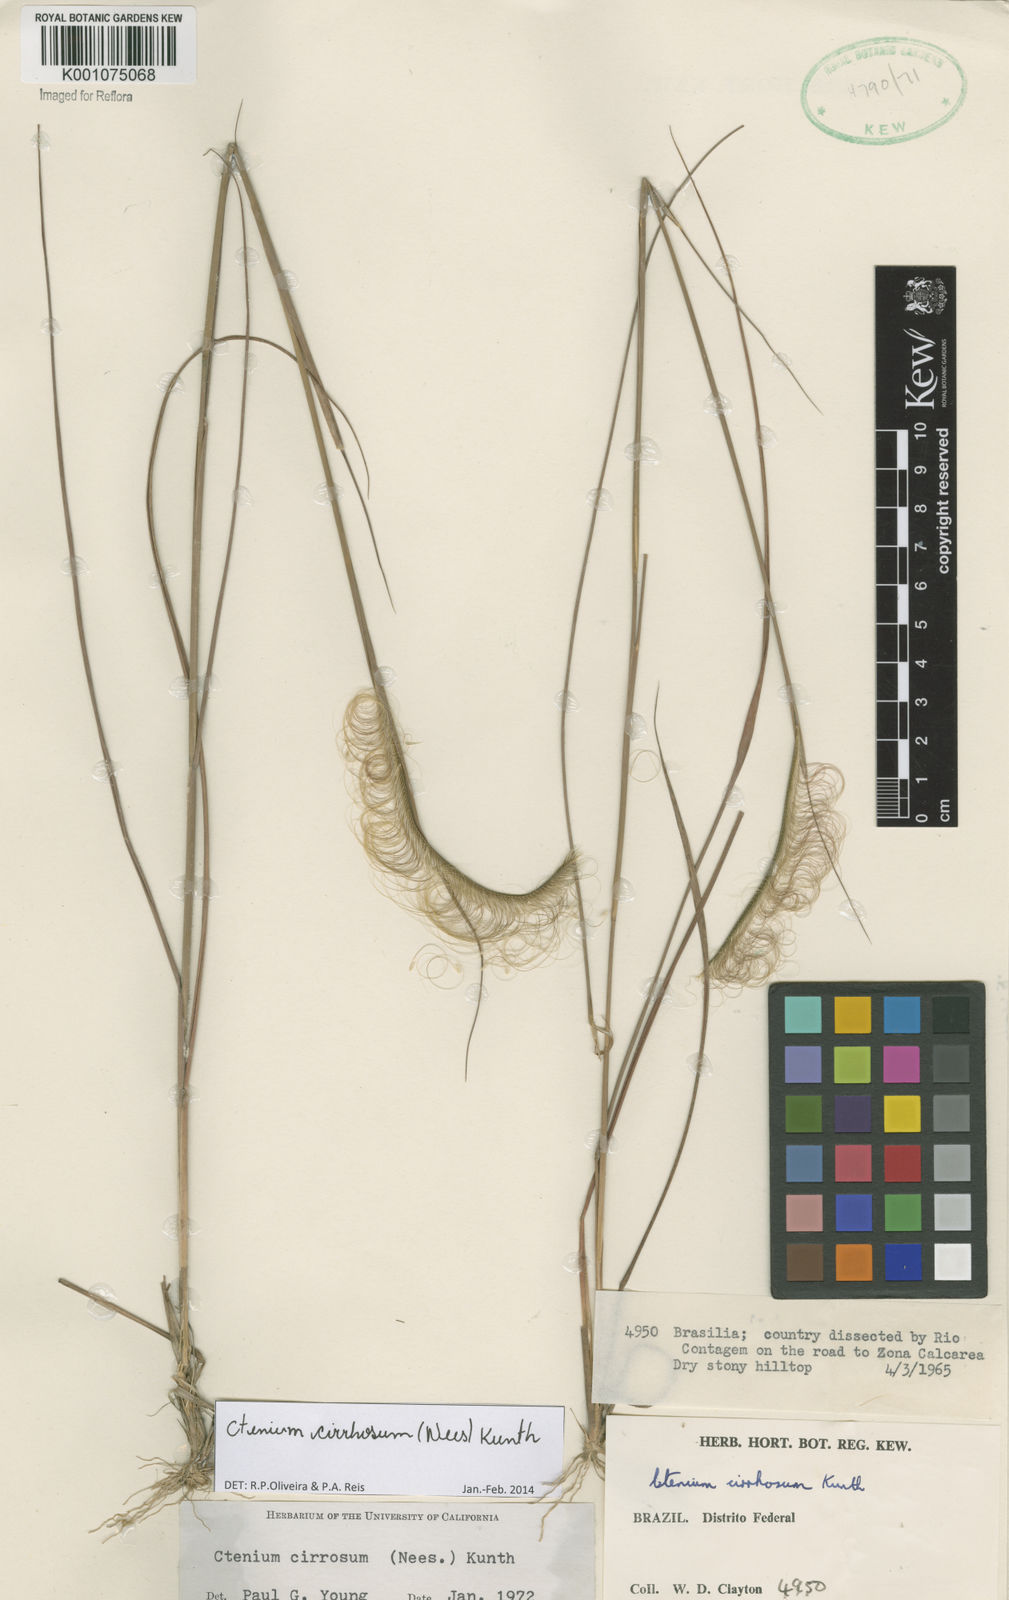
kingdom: Plantae
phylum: Tracheophyta
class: Liliopsida
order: Poales
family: Poaceae
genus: Ctenium
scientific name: Ctenium cirrhosum
